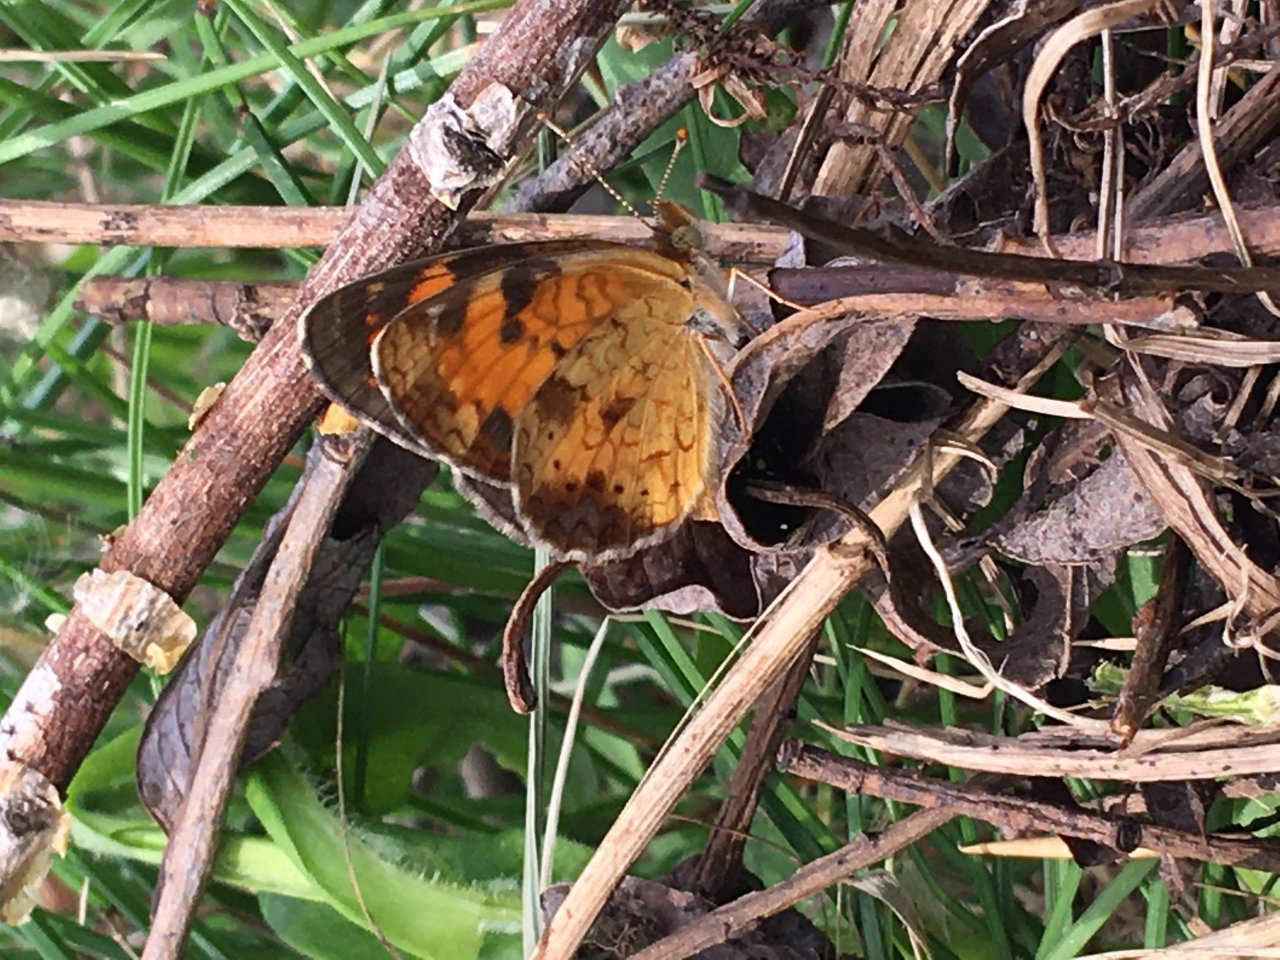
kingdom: Animalia
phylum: Arthropoda
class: Insecta
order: Lepidoptera
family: Nymphalidae
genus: Phyciodes
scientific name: Phyciodes tharos
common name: Northern Crescent
